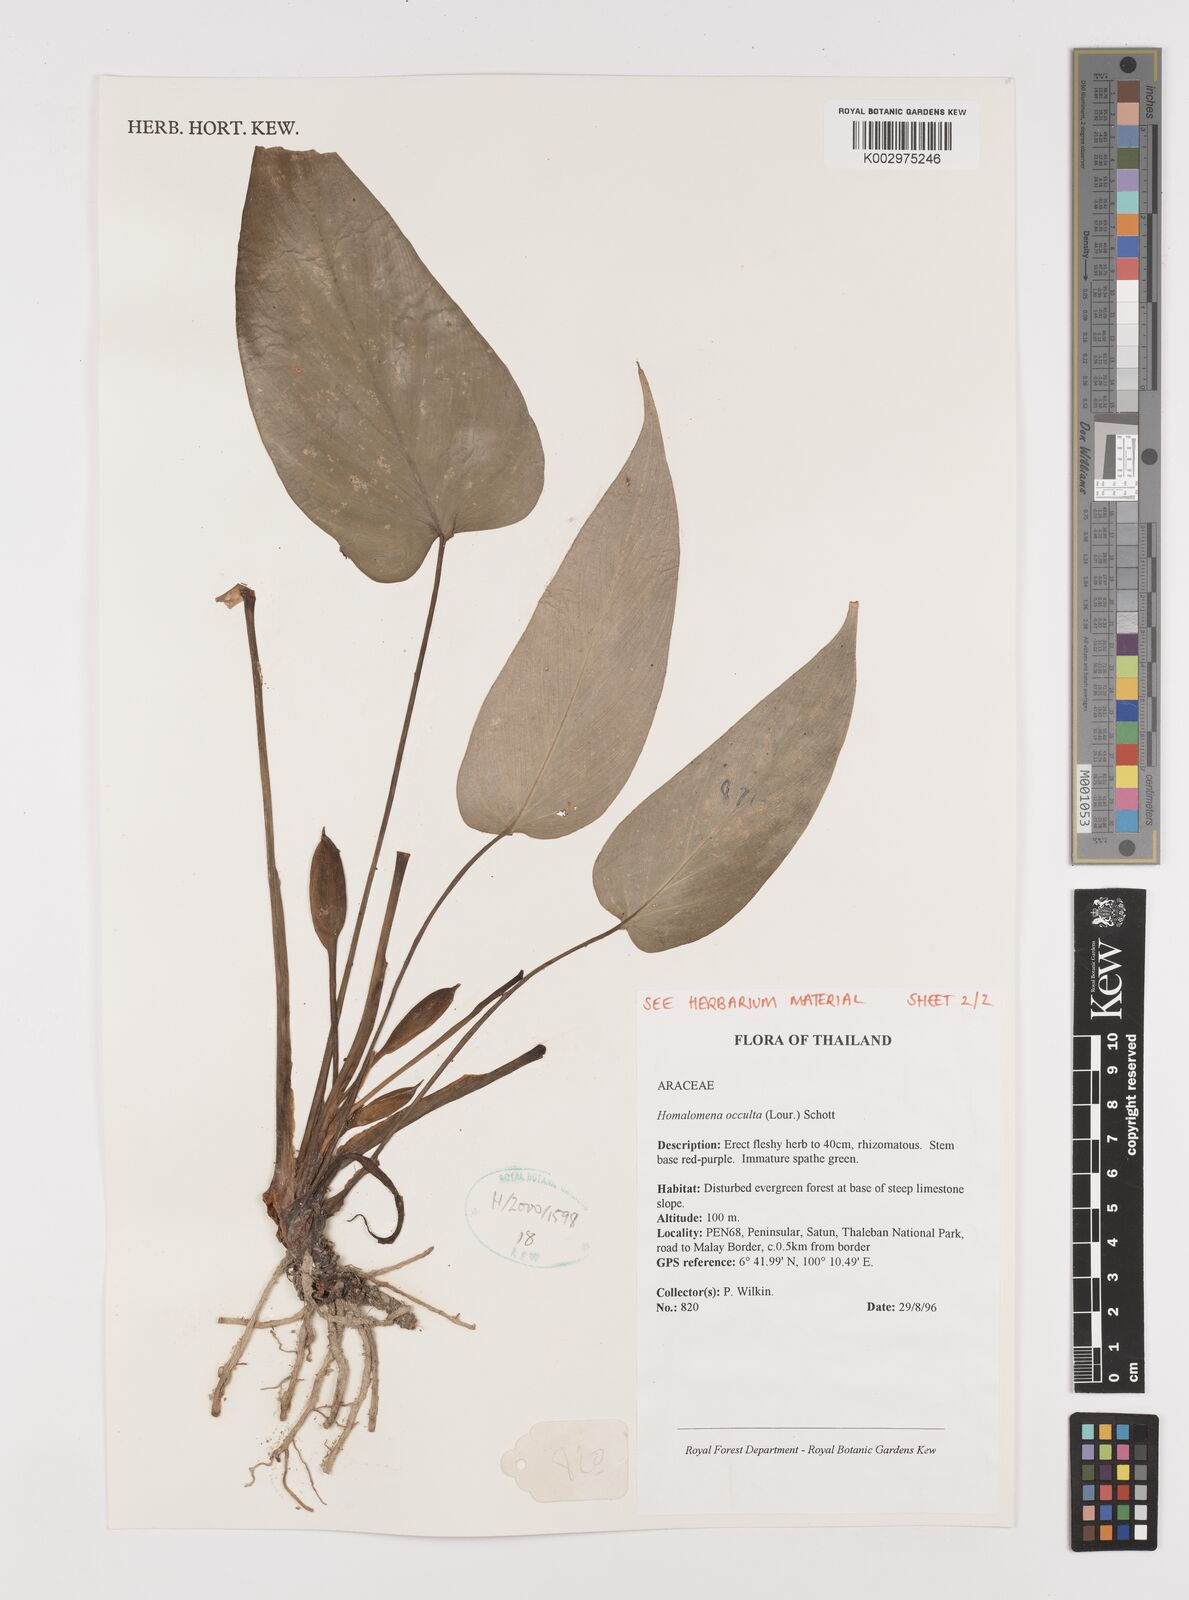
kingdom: Plantae
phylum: Tracheophyta
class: Liliopsida
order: Alismatales
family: Araceae
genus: Homalomena
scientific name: Homalomena occulta
